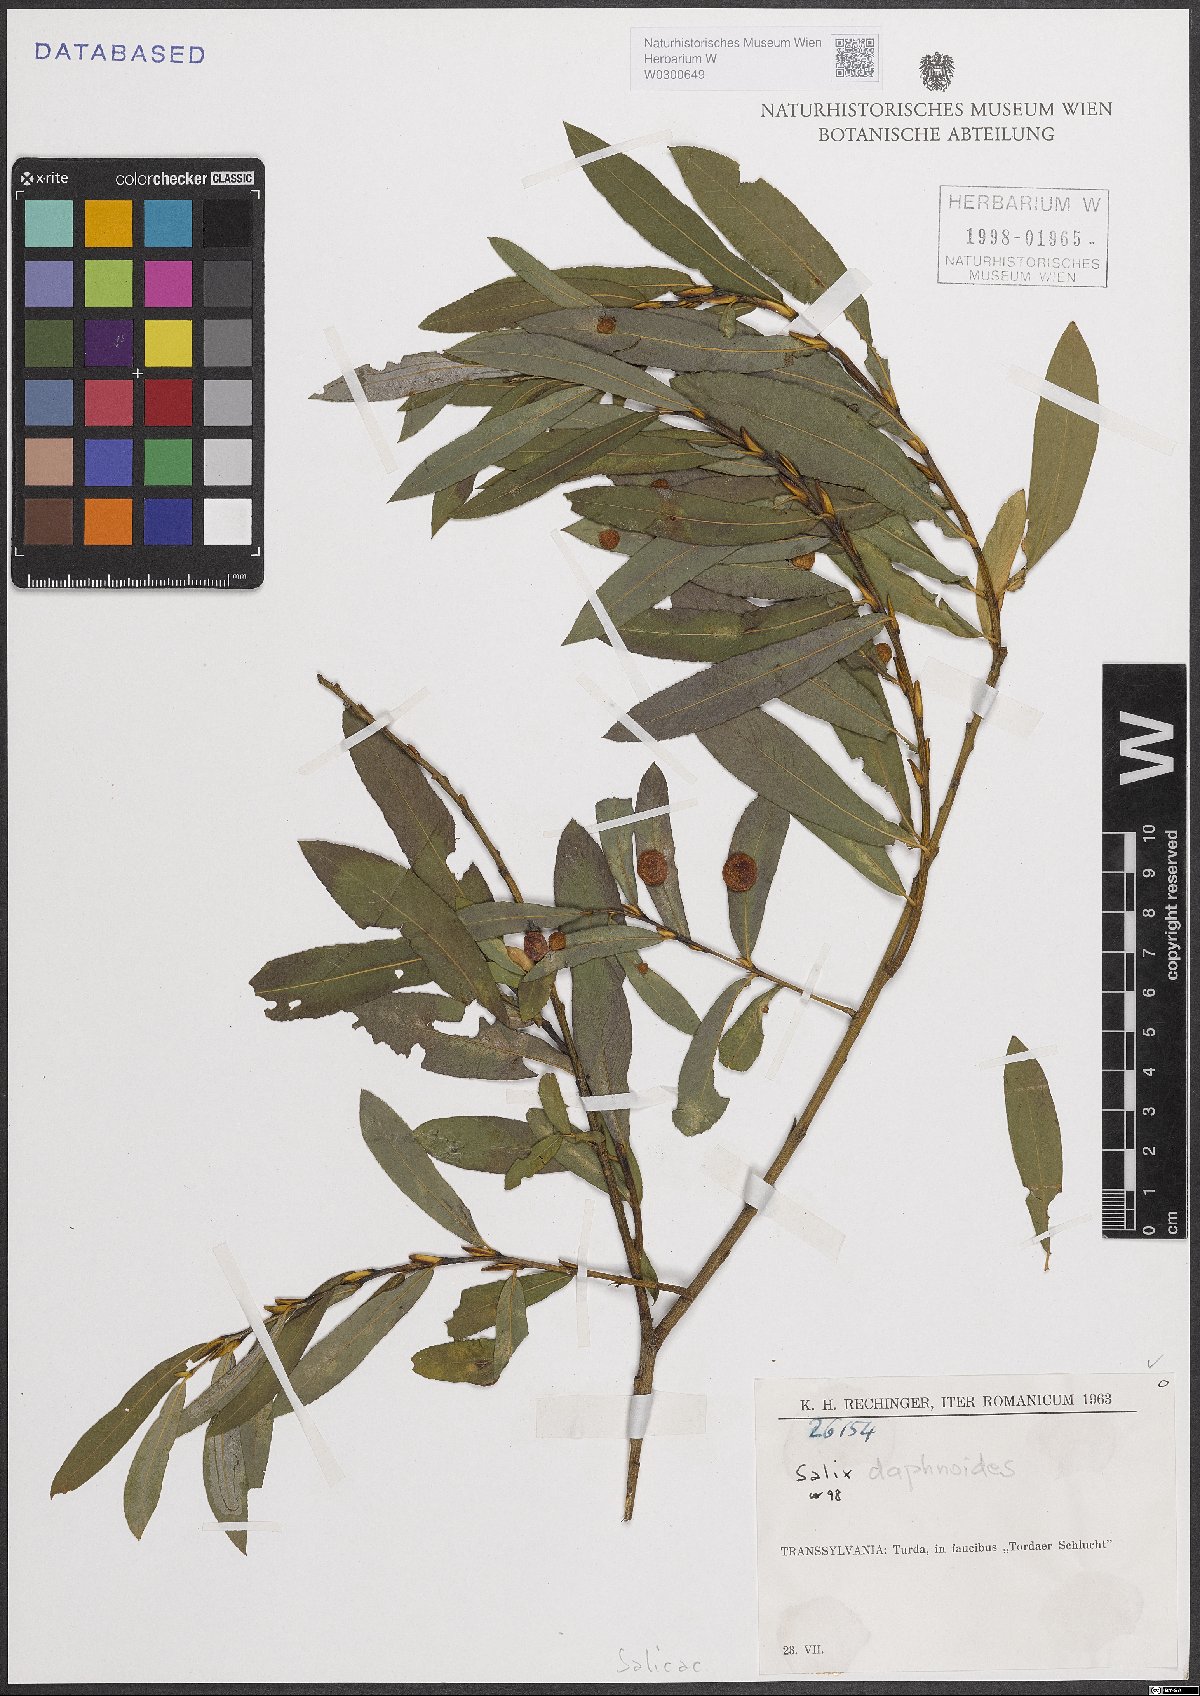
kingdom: Plantae
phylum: Tracheophyta
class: Magnoliopsida
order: Malpighiales
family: Salicaceae
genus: Salix
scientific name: Salix daphnoides
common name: European violet-willow
